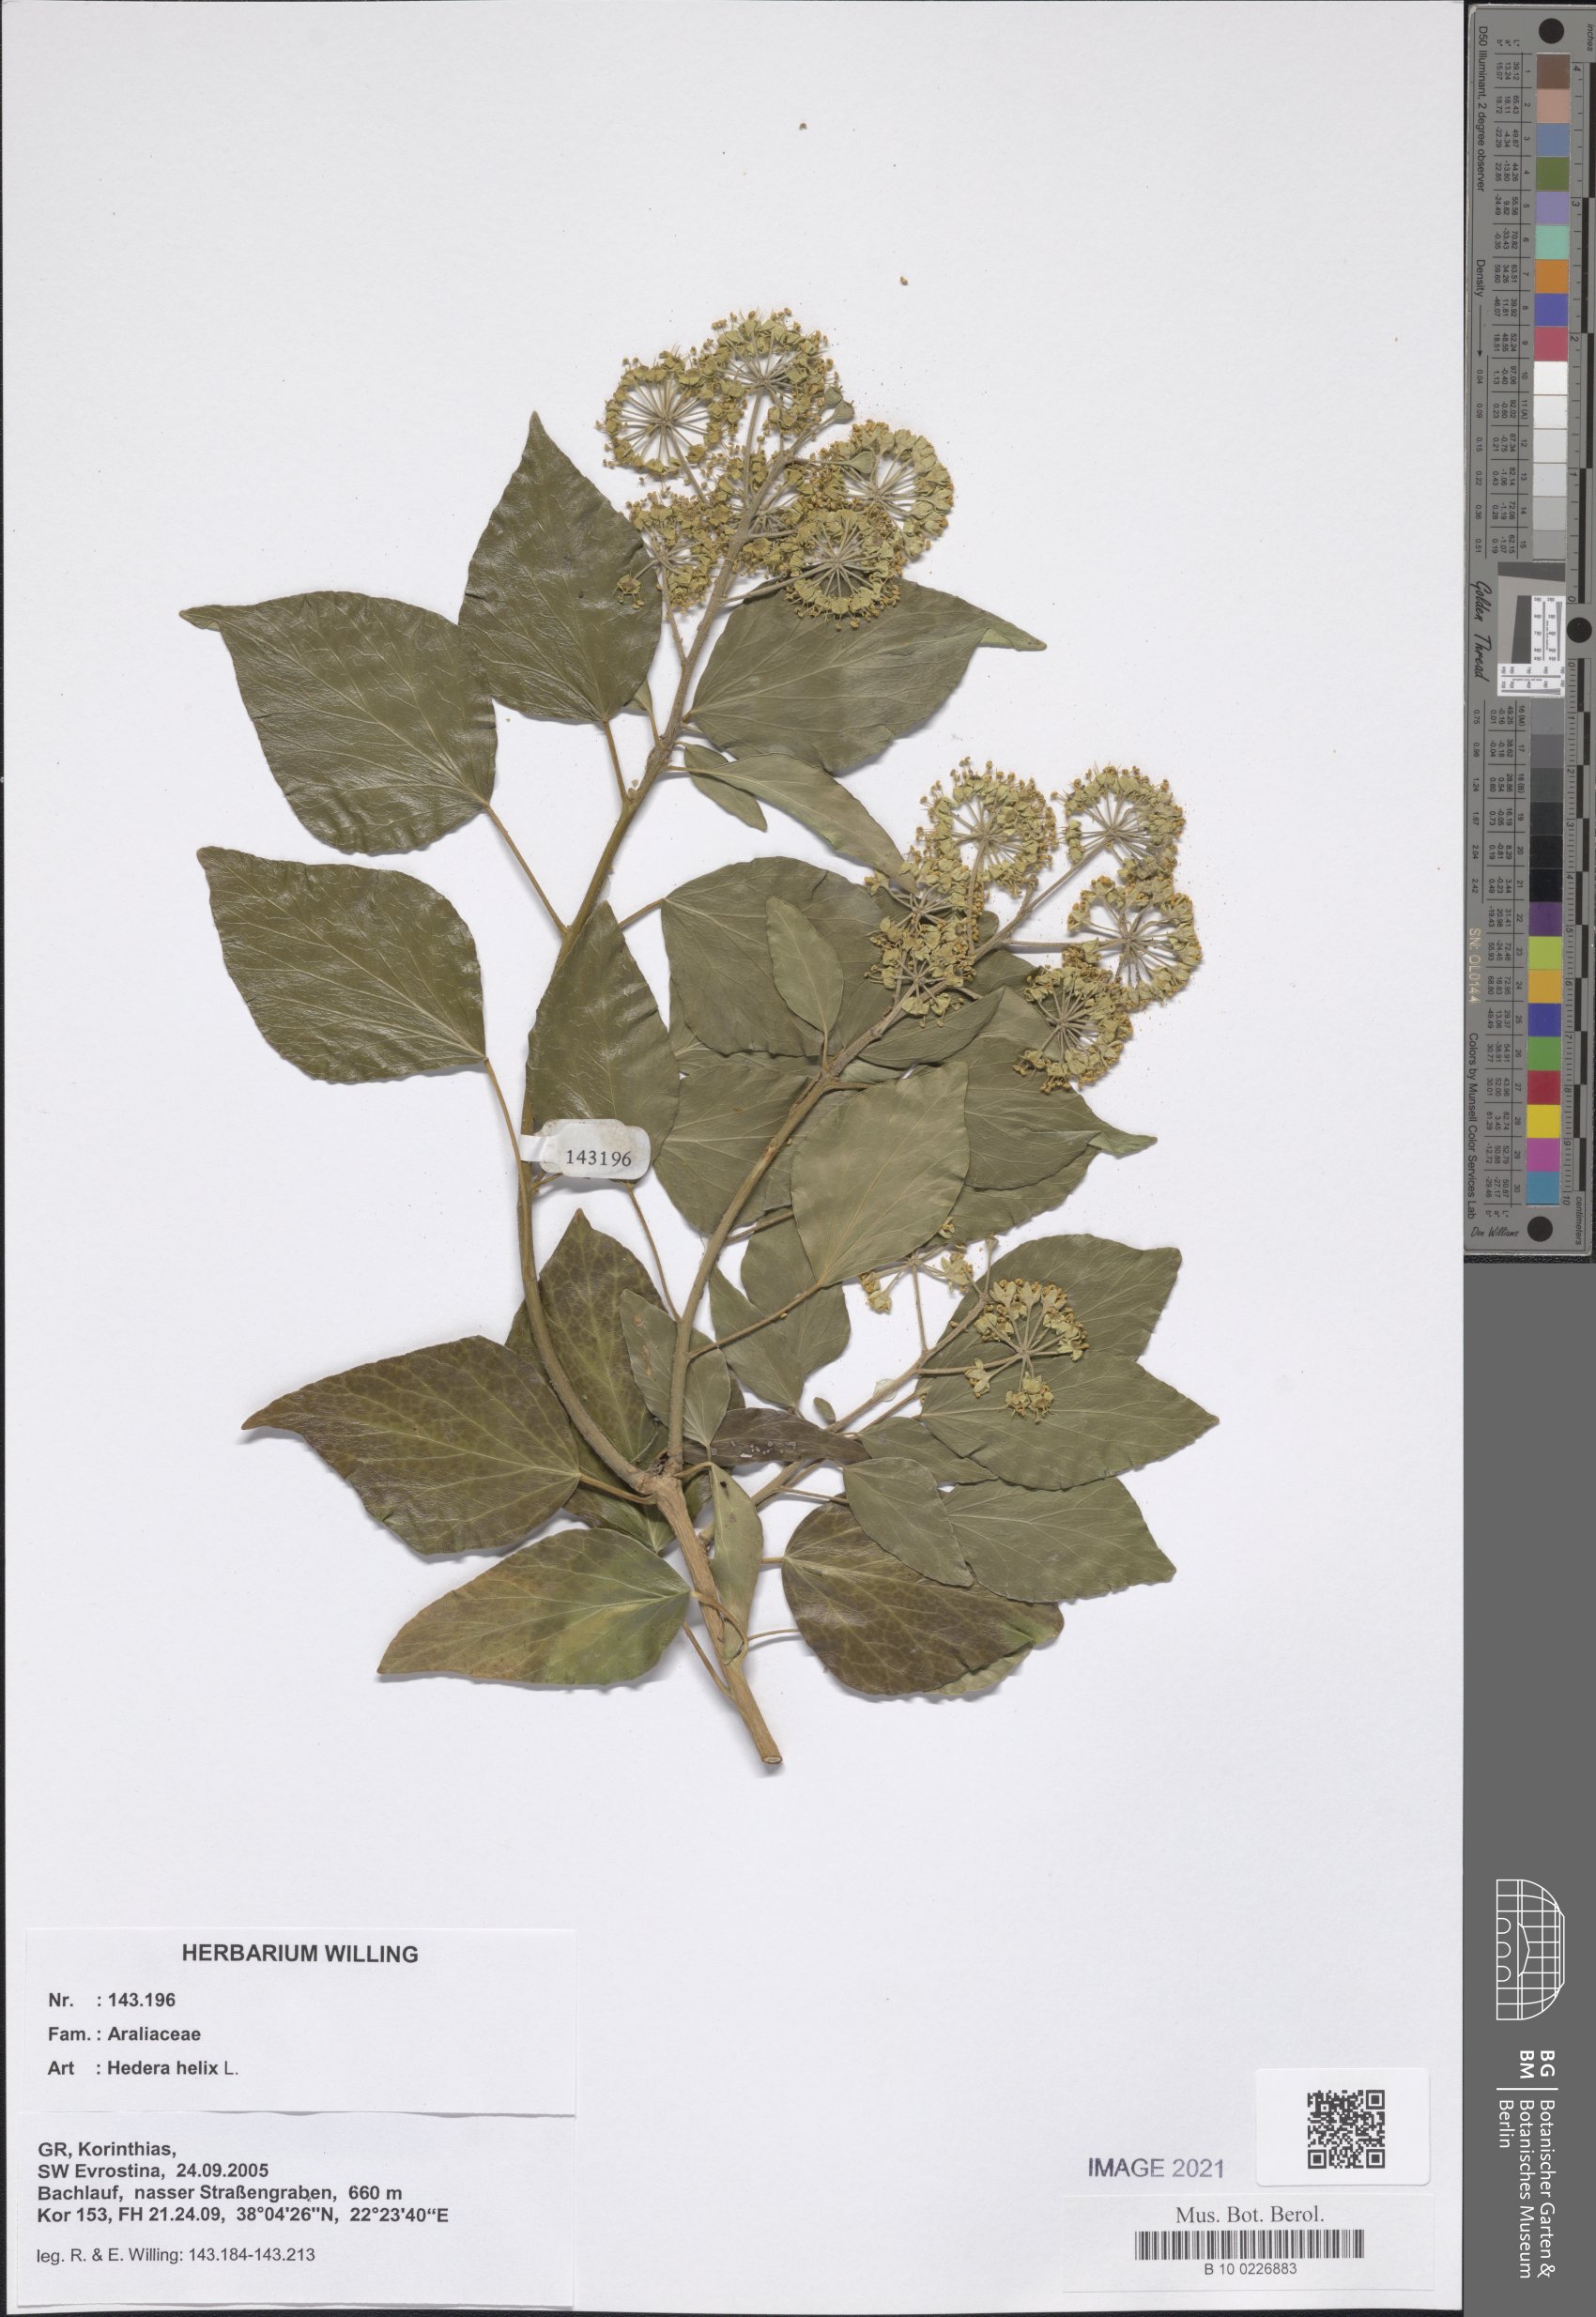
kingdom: Plantae
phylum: Tracheophyta
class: Magnoliopsida
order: Apiales
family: Araliaceae
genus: Hedera
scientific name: Hedera helix
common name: Ivy
